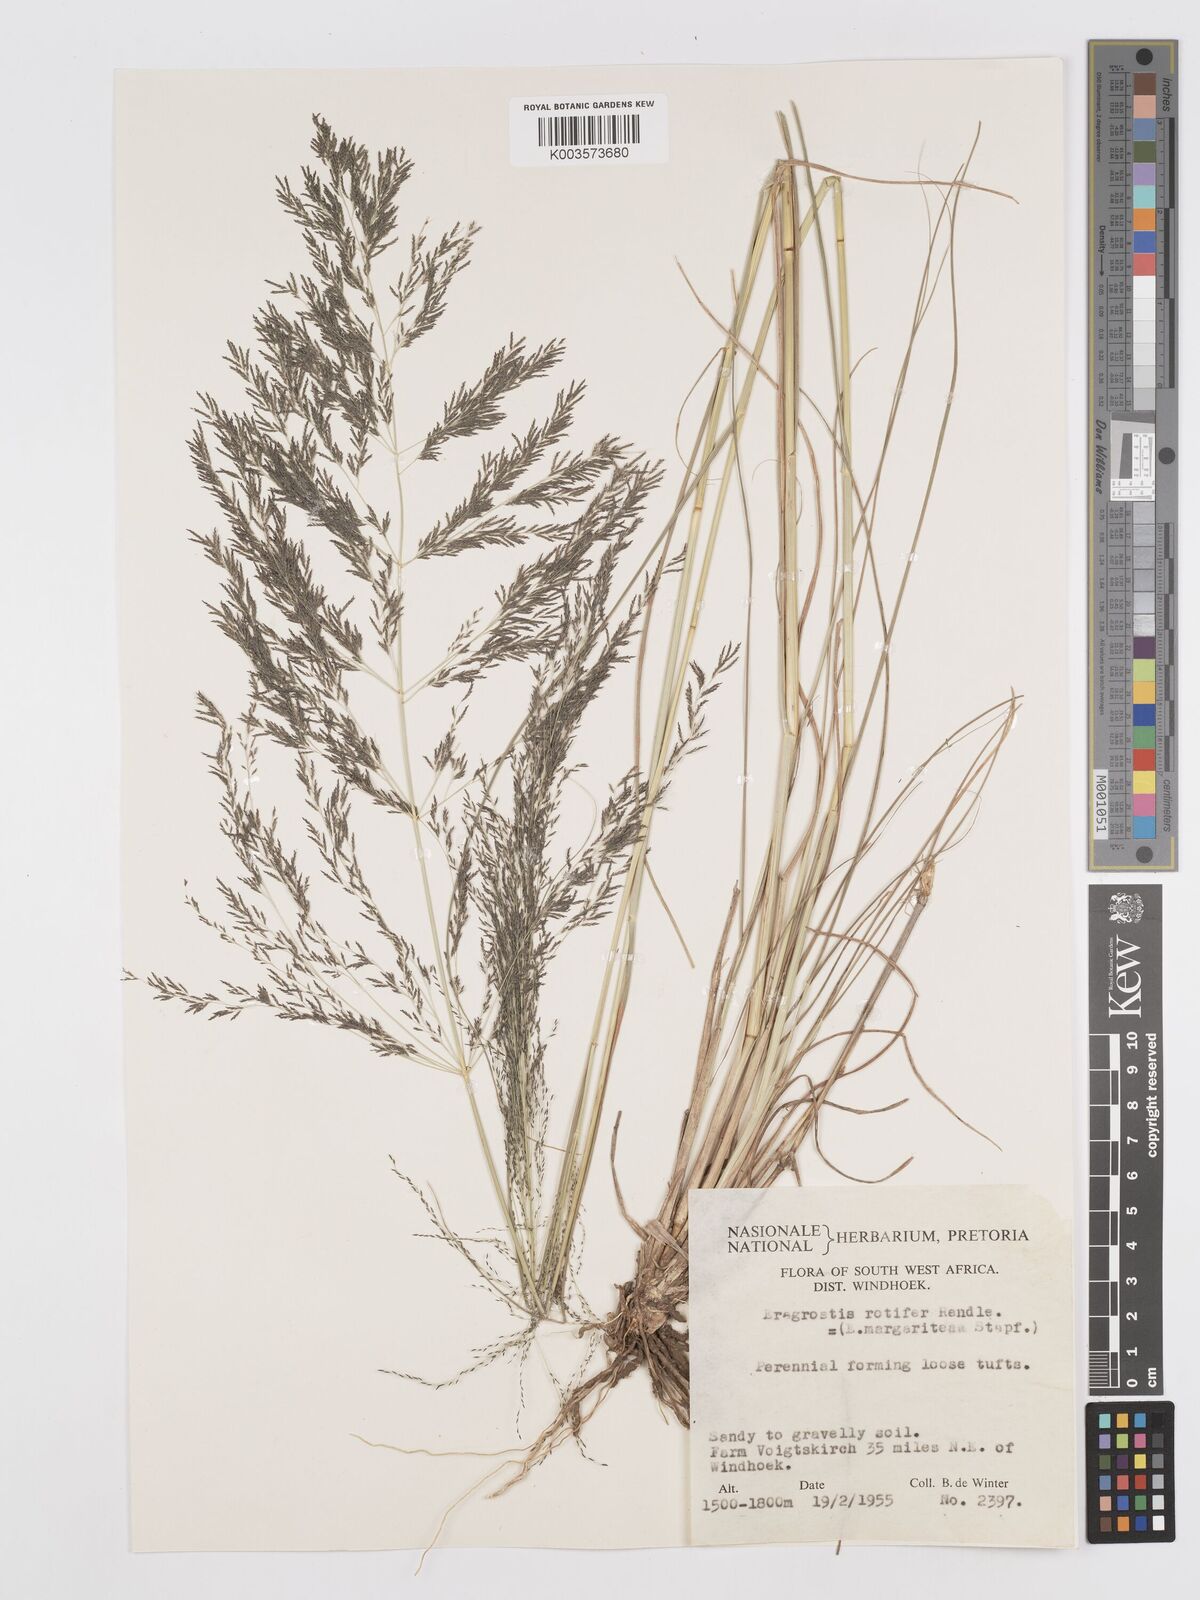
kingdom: Plantae
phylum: Tracheophyta
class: Liliopsida
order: Poales
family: Poaceae
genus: Eragrostis
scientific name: Eragrostis rotifer
